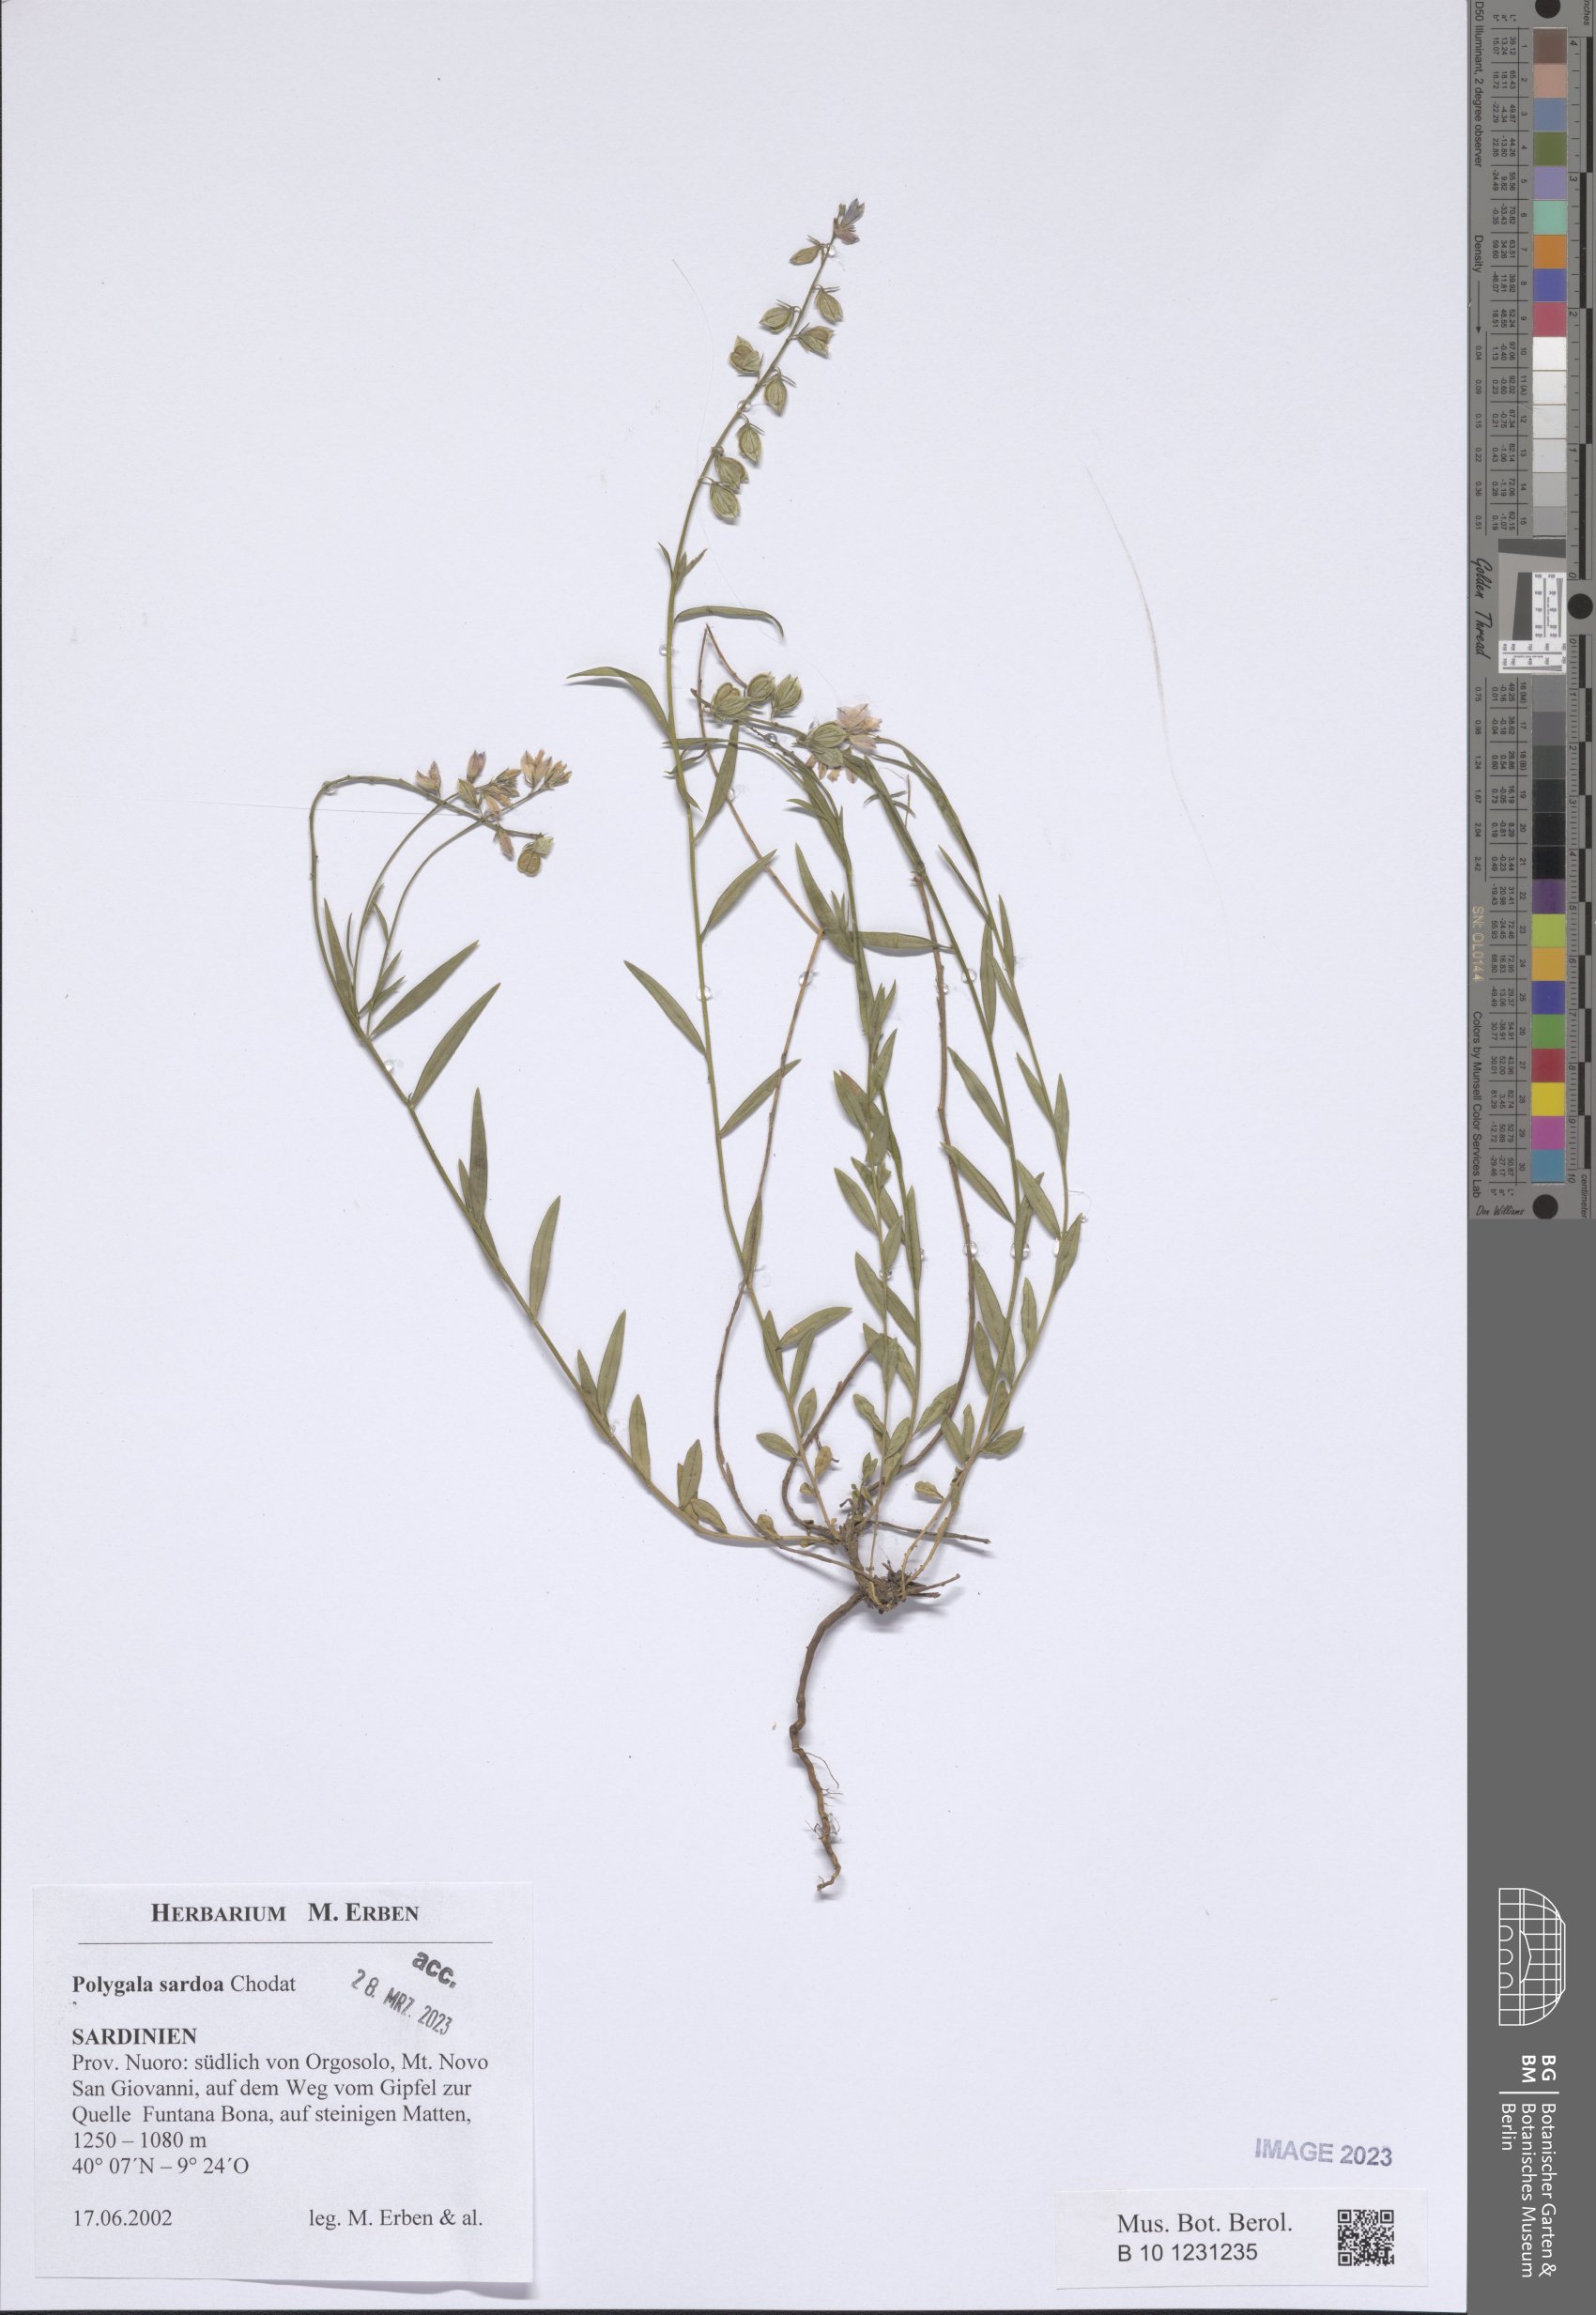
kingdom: Plantae
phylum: Tracheophyta
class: Magnoliopsida
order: Fabales
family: Polygalaceae
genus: Polygala
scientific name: Polygala sardoa
